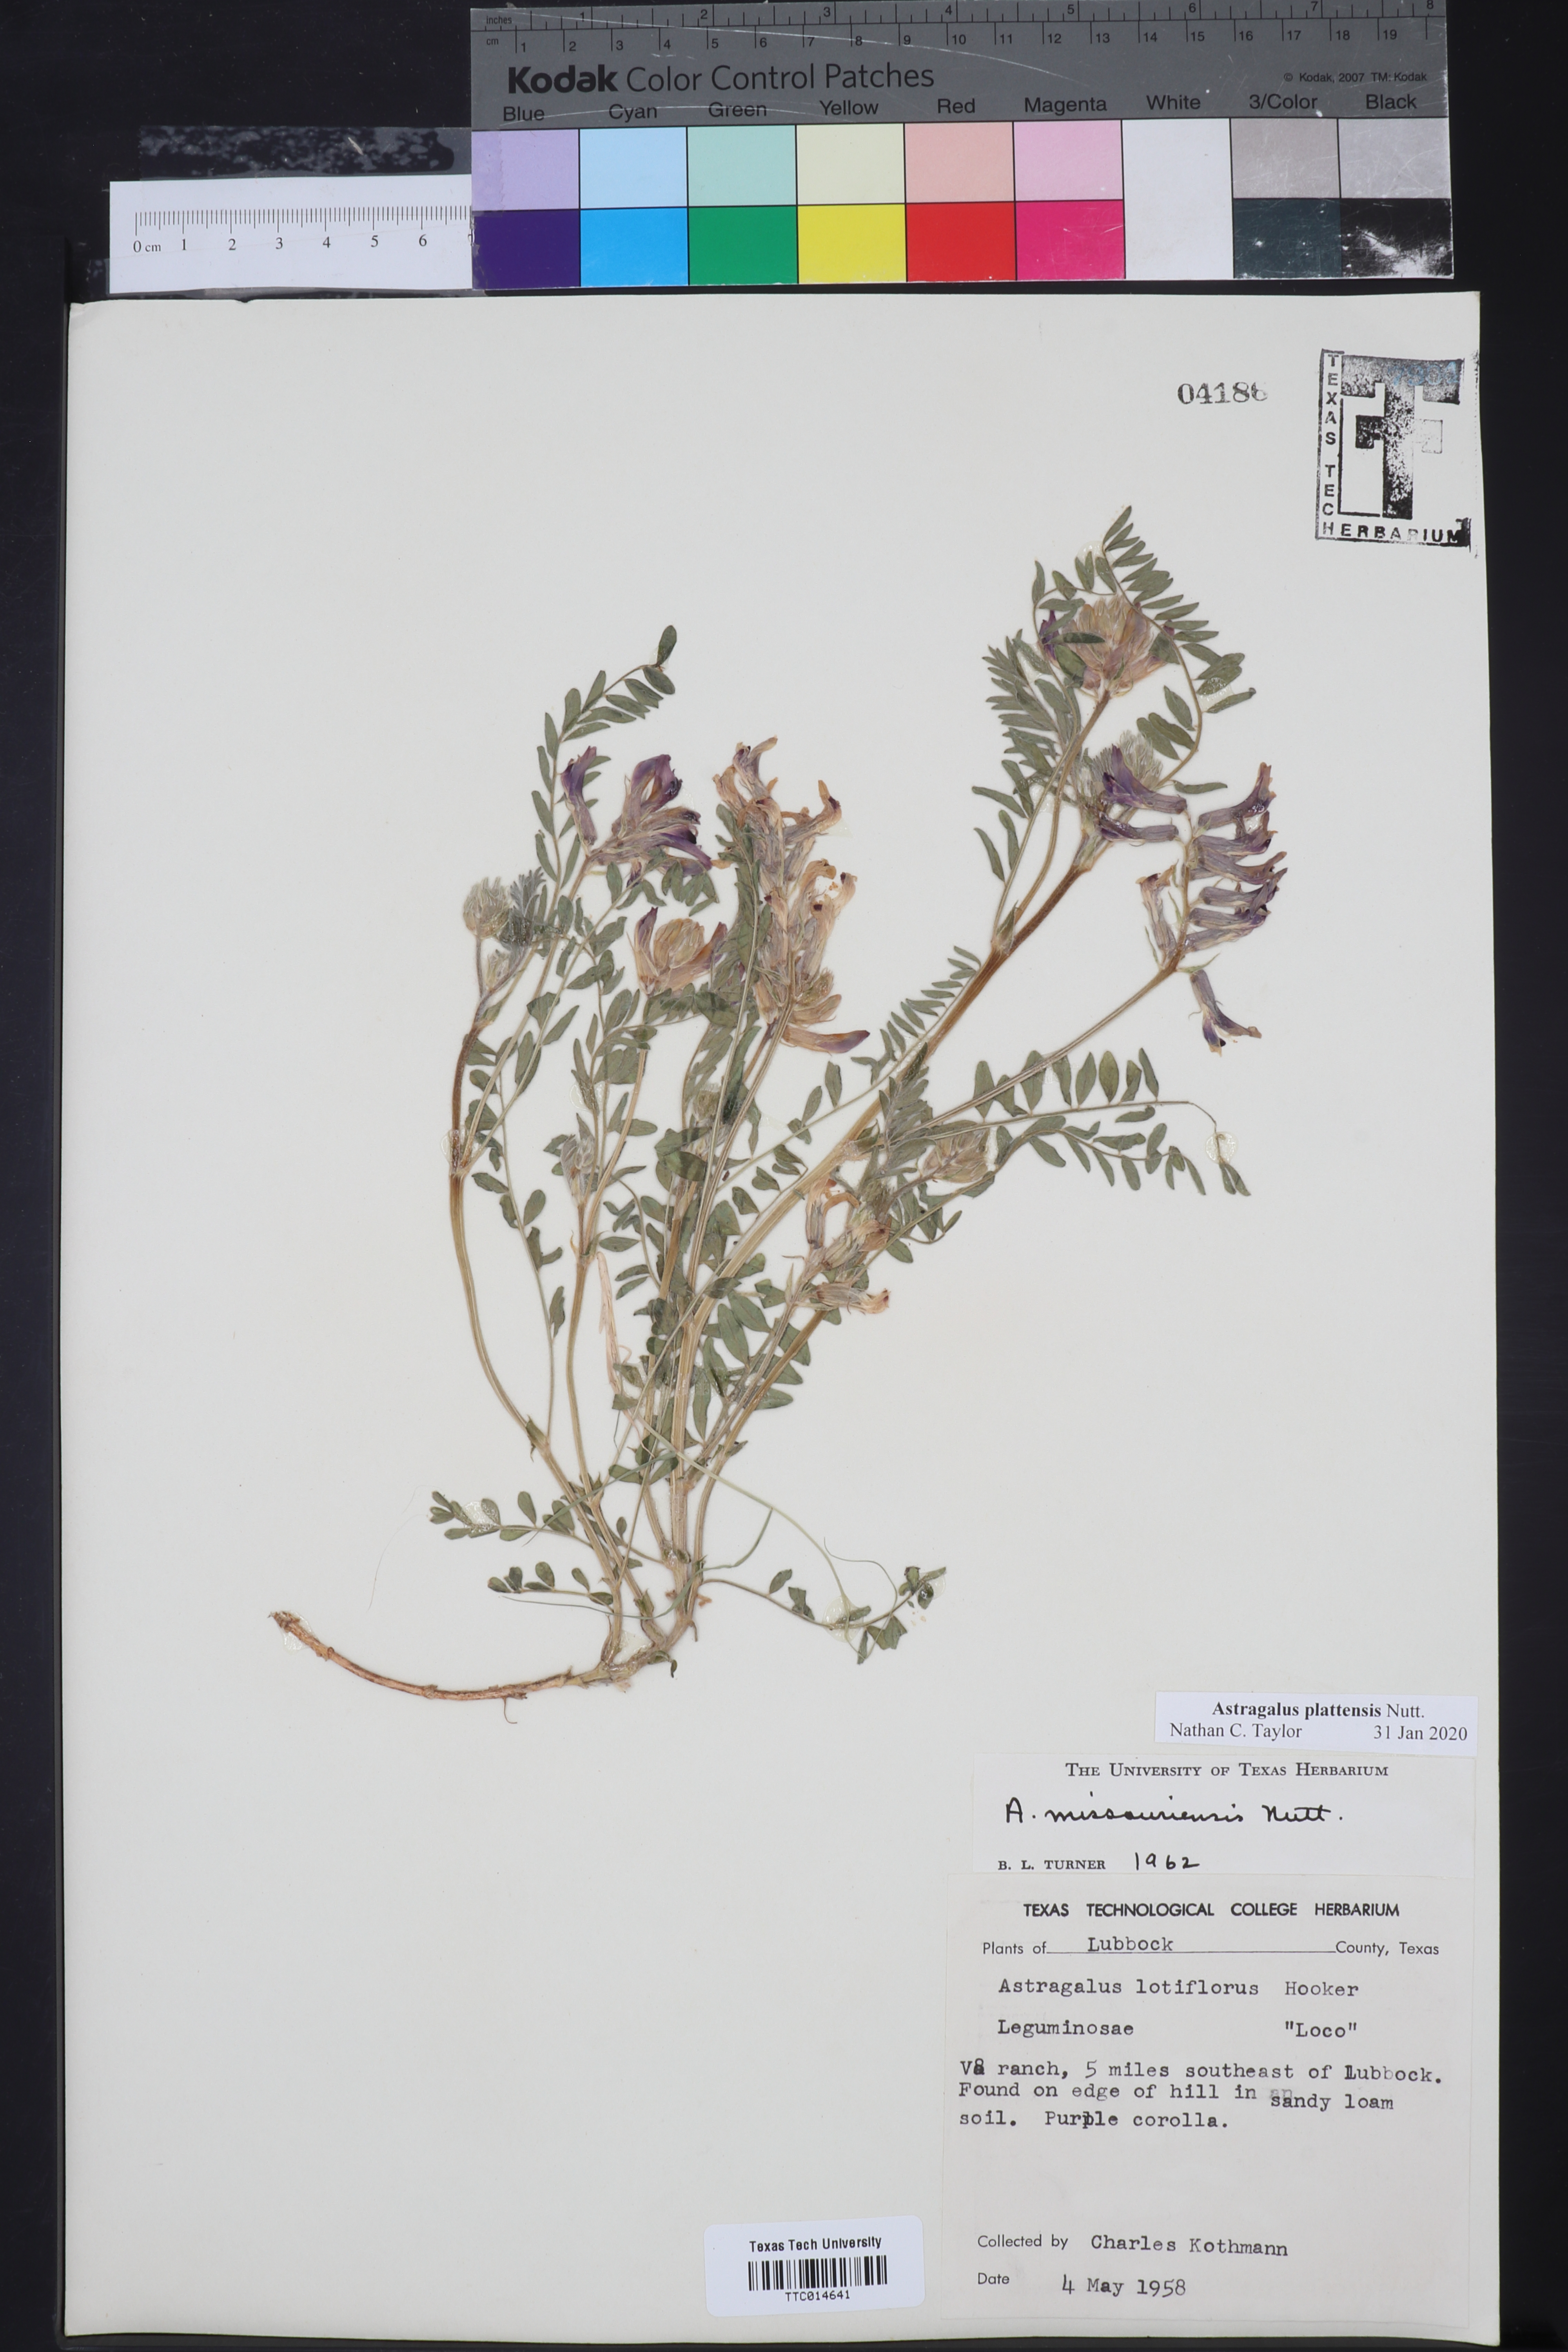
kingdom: Plantae
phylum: Tracheophyta
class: Magnoliopsida
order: Fabales
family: Fabaceae
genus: Astragalus
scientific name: Astragalus plattensis
